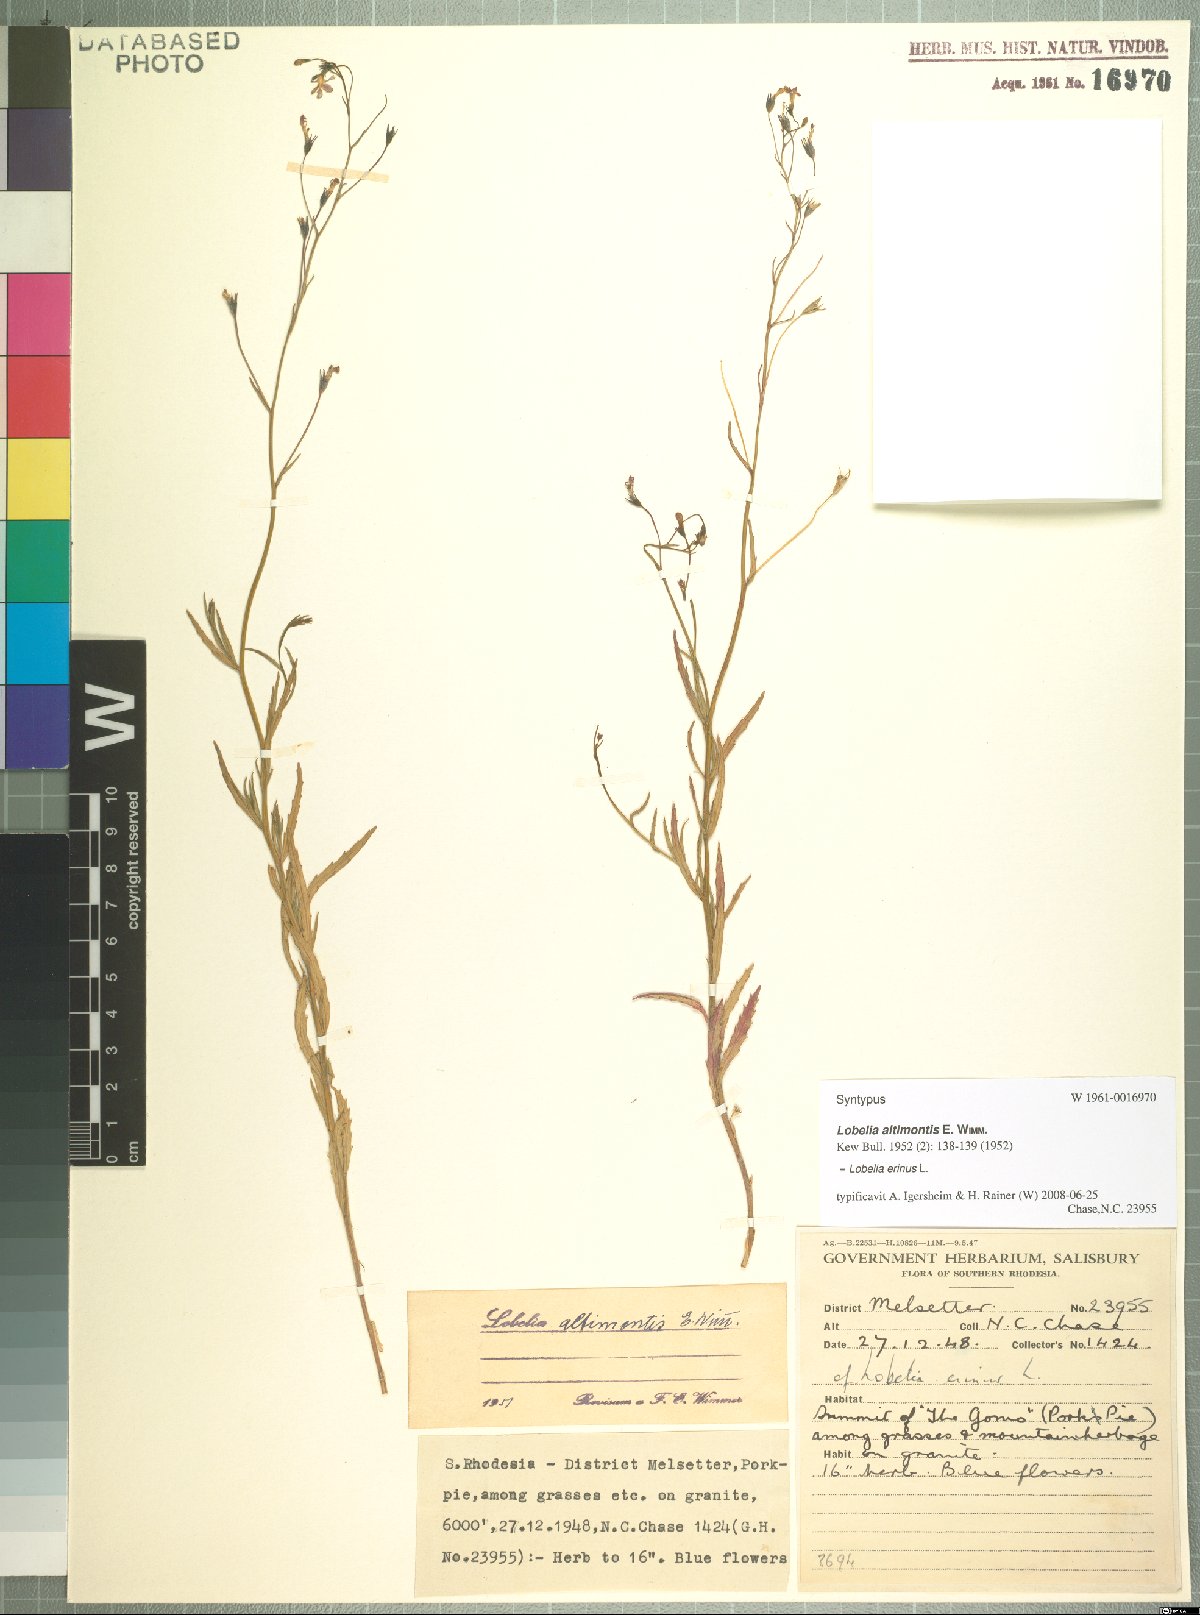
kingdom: Plantae
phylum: Tracheophyta
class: Magnoliopsida
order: Asterales
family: Campanulaceae
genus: Lobelia
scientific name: Lobelia erinus
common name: Edging lobelia
